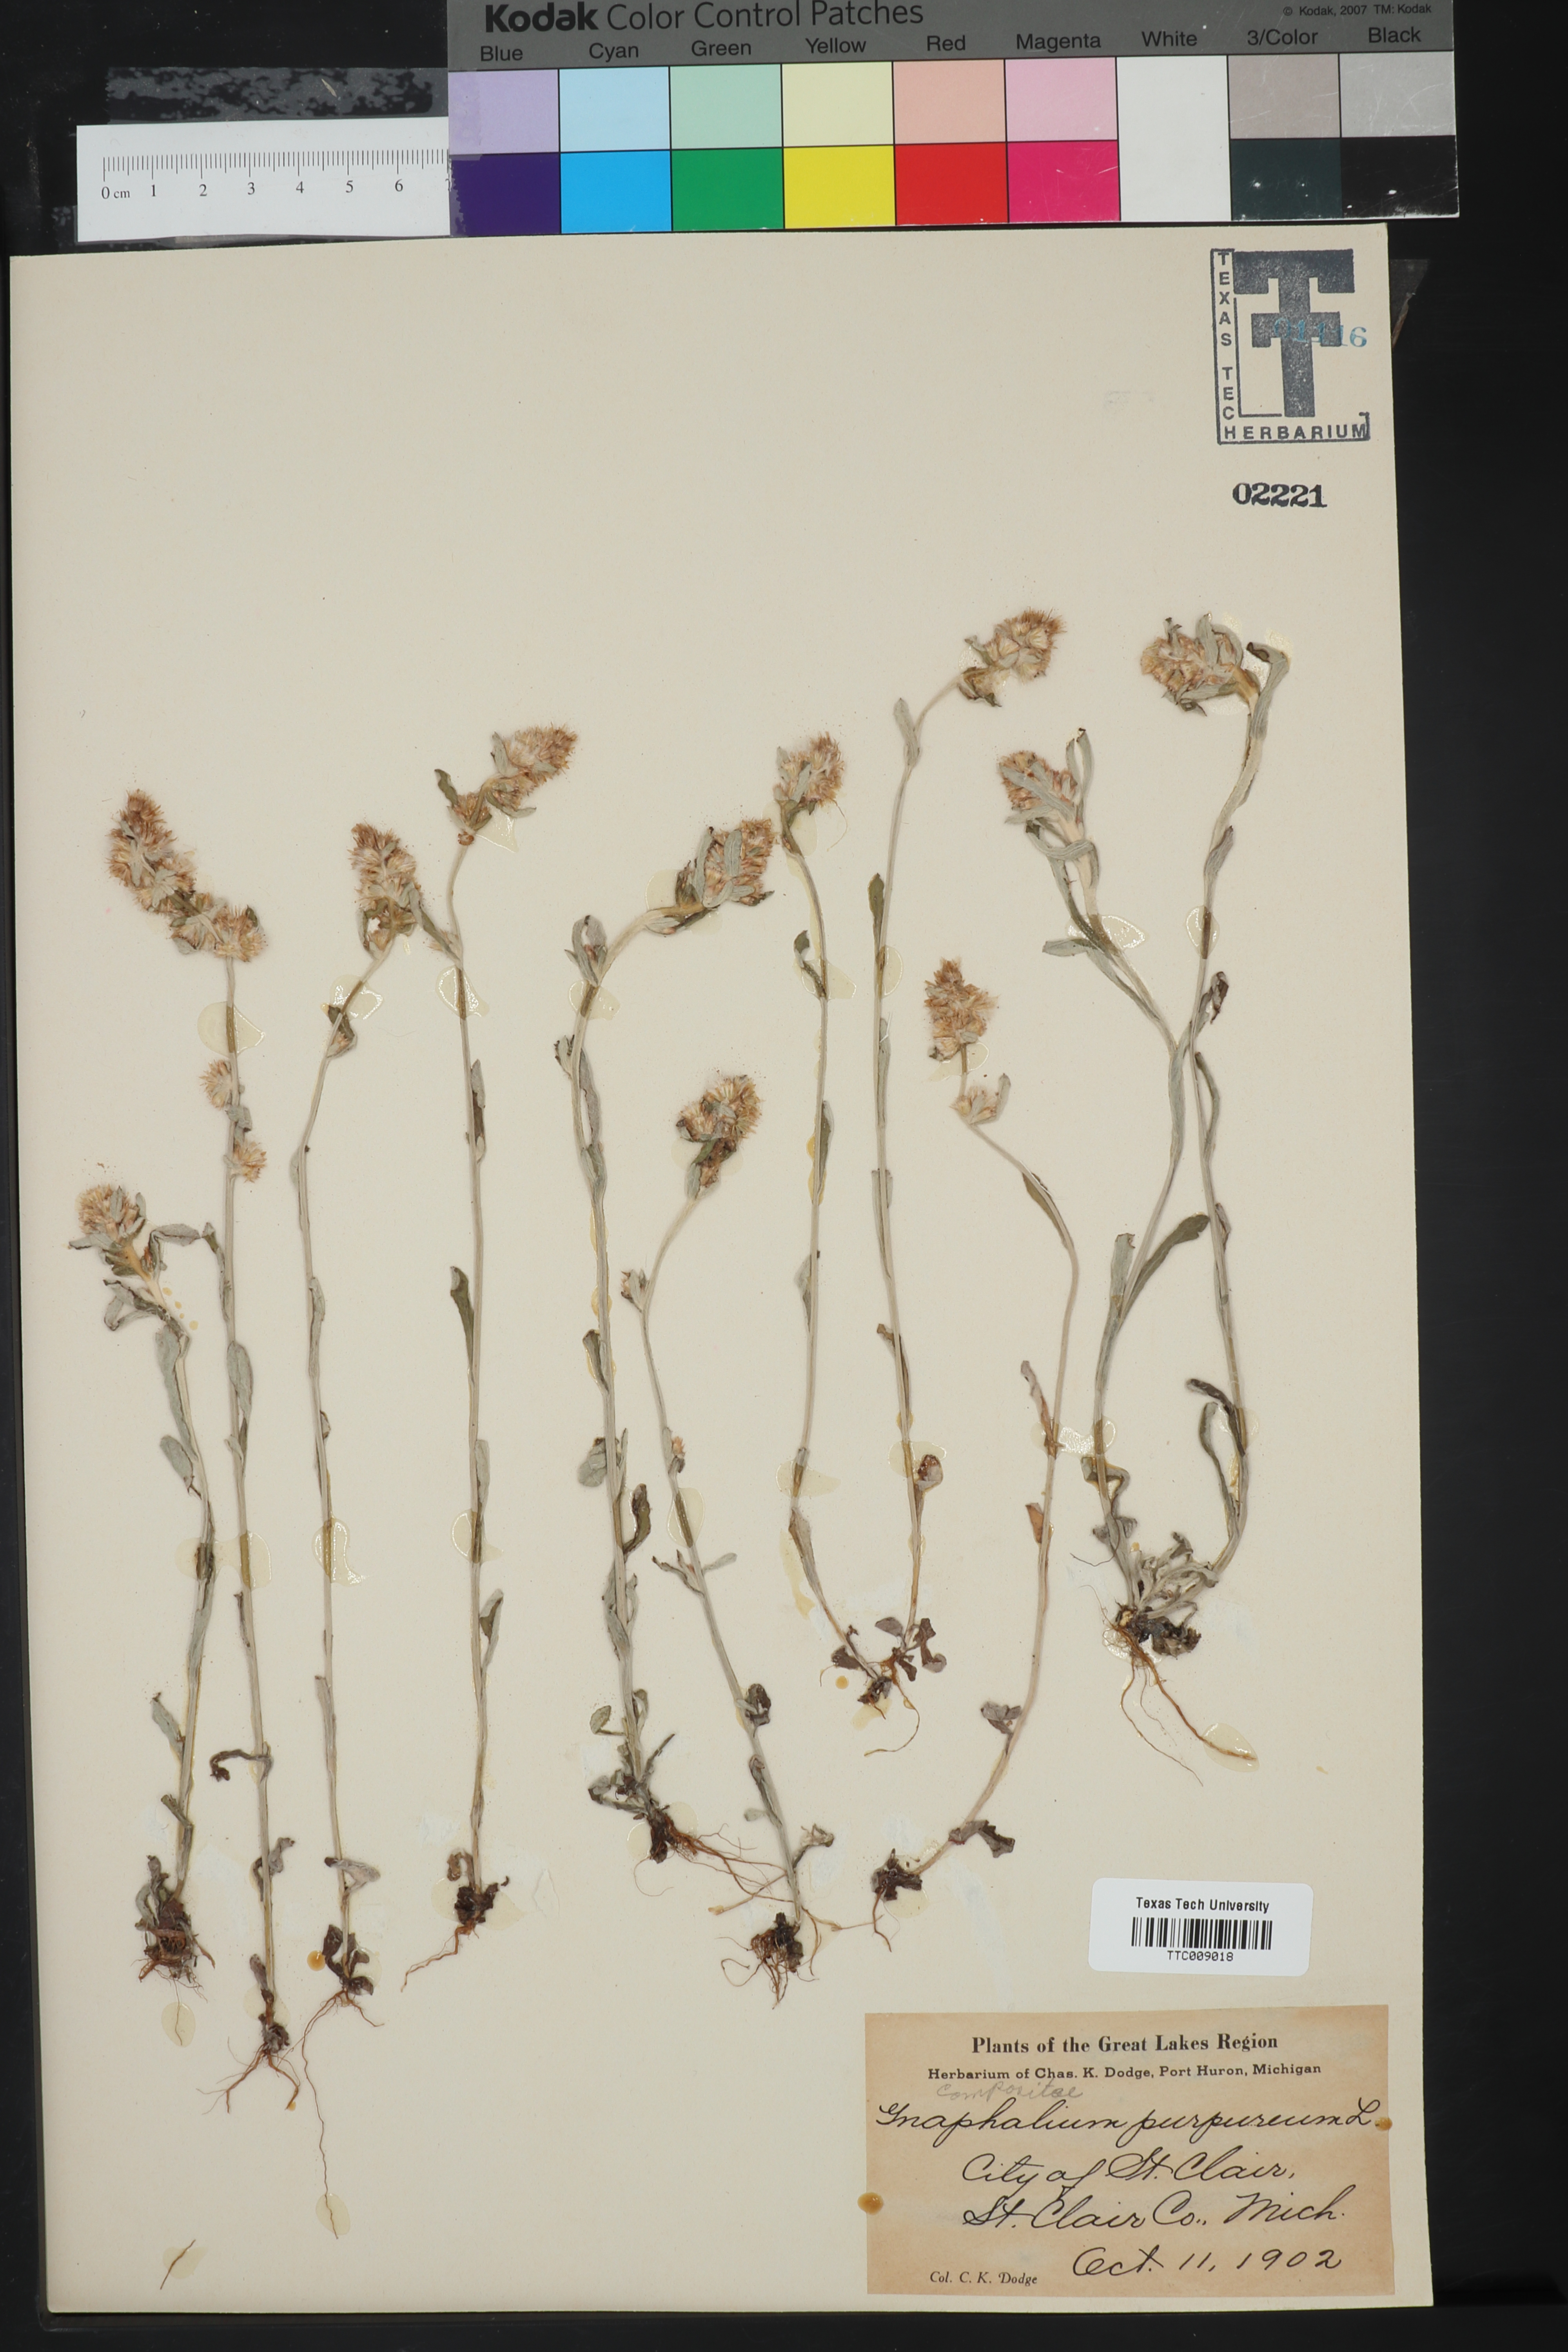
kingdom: Plantae
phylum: Tracheophyta
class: Magnoliopsida
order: Asterales
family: Asteraceae
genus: Helichrysum
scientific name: Helichrysum nodiflorum
